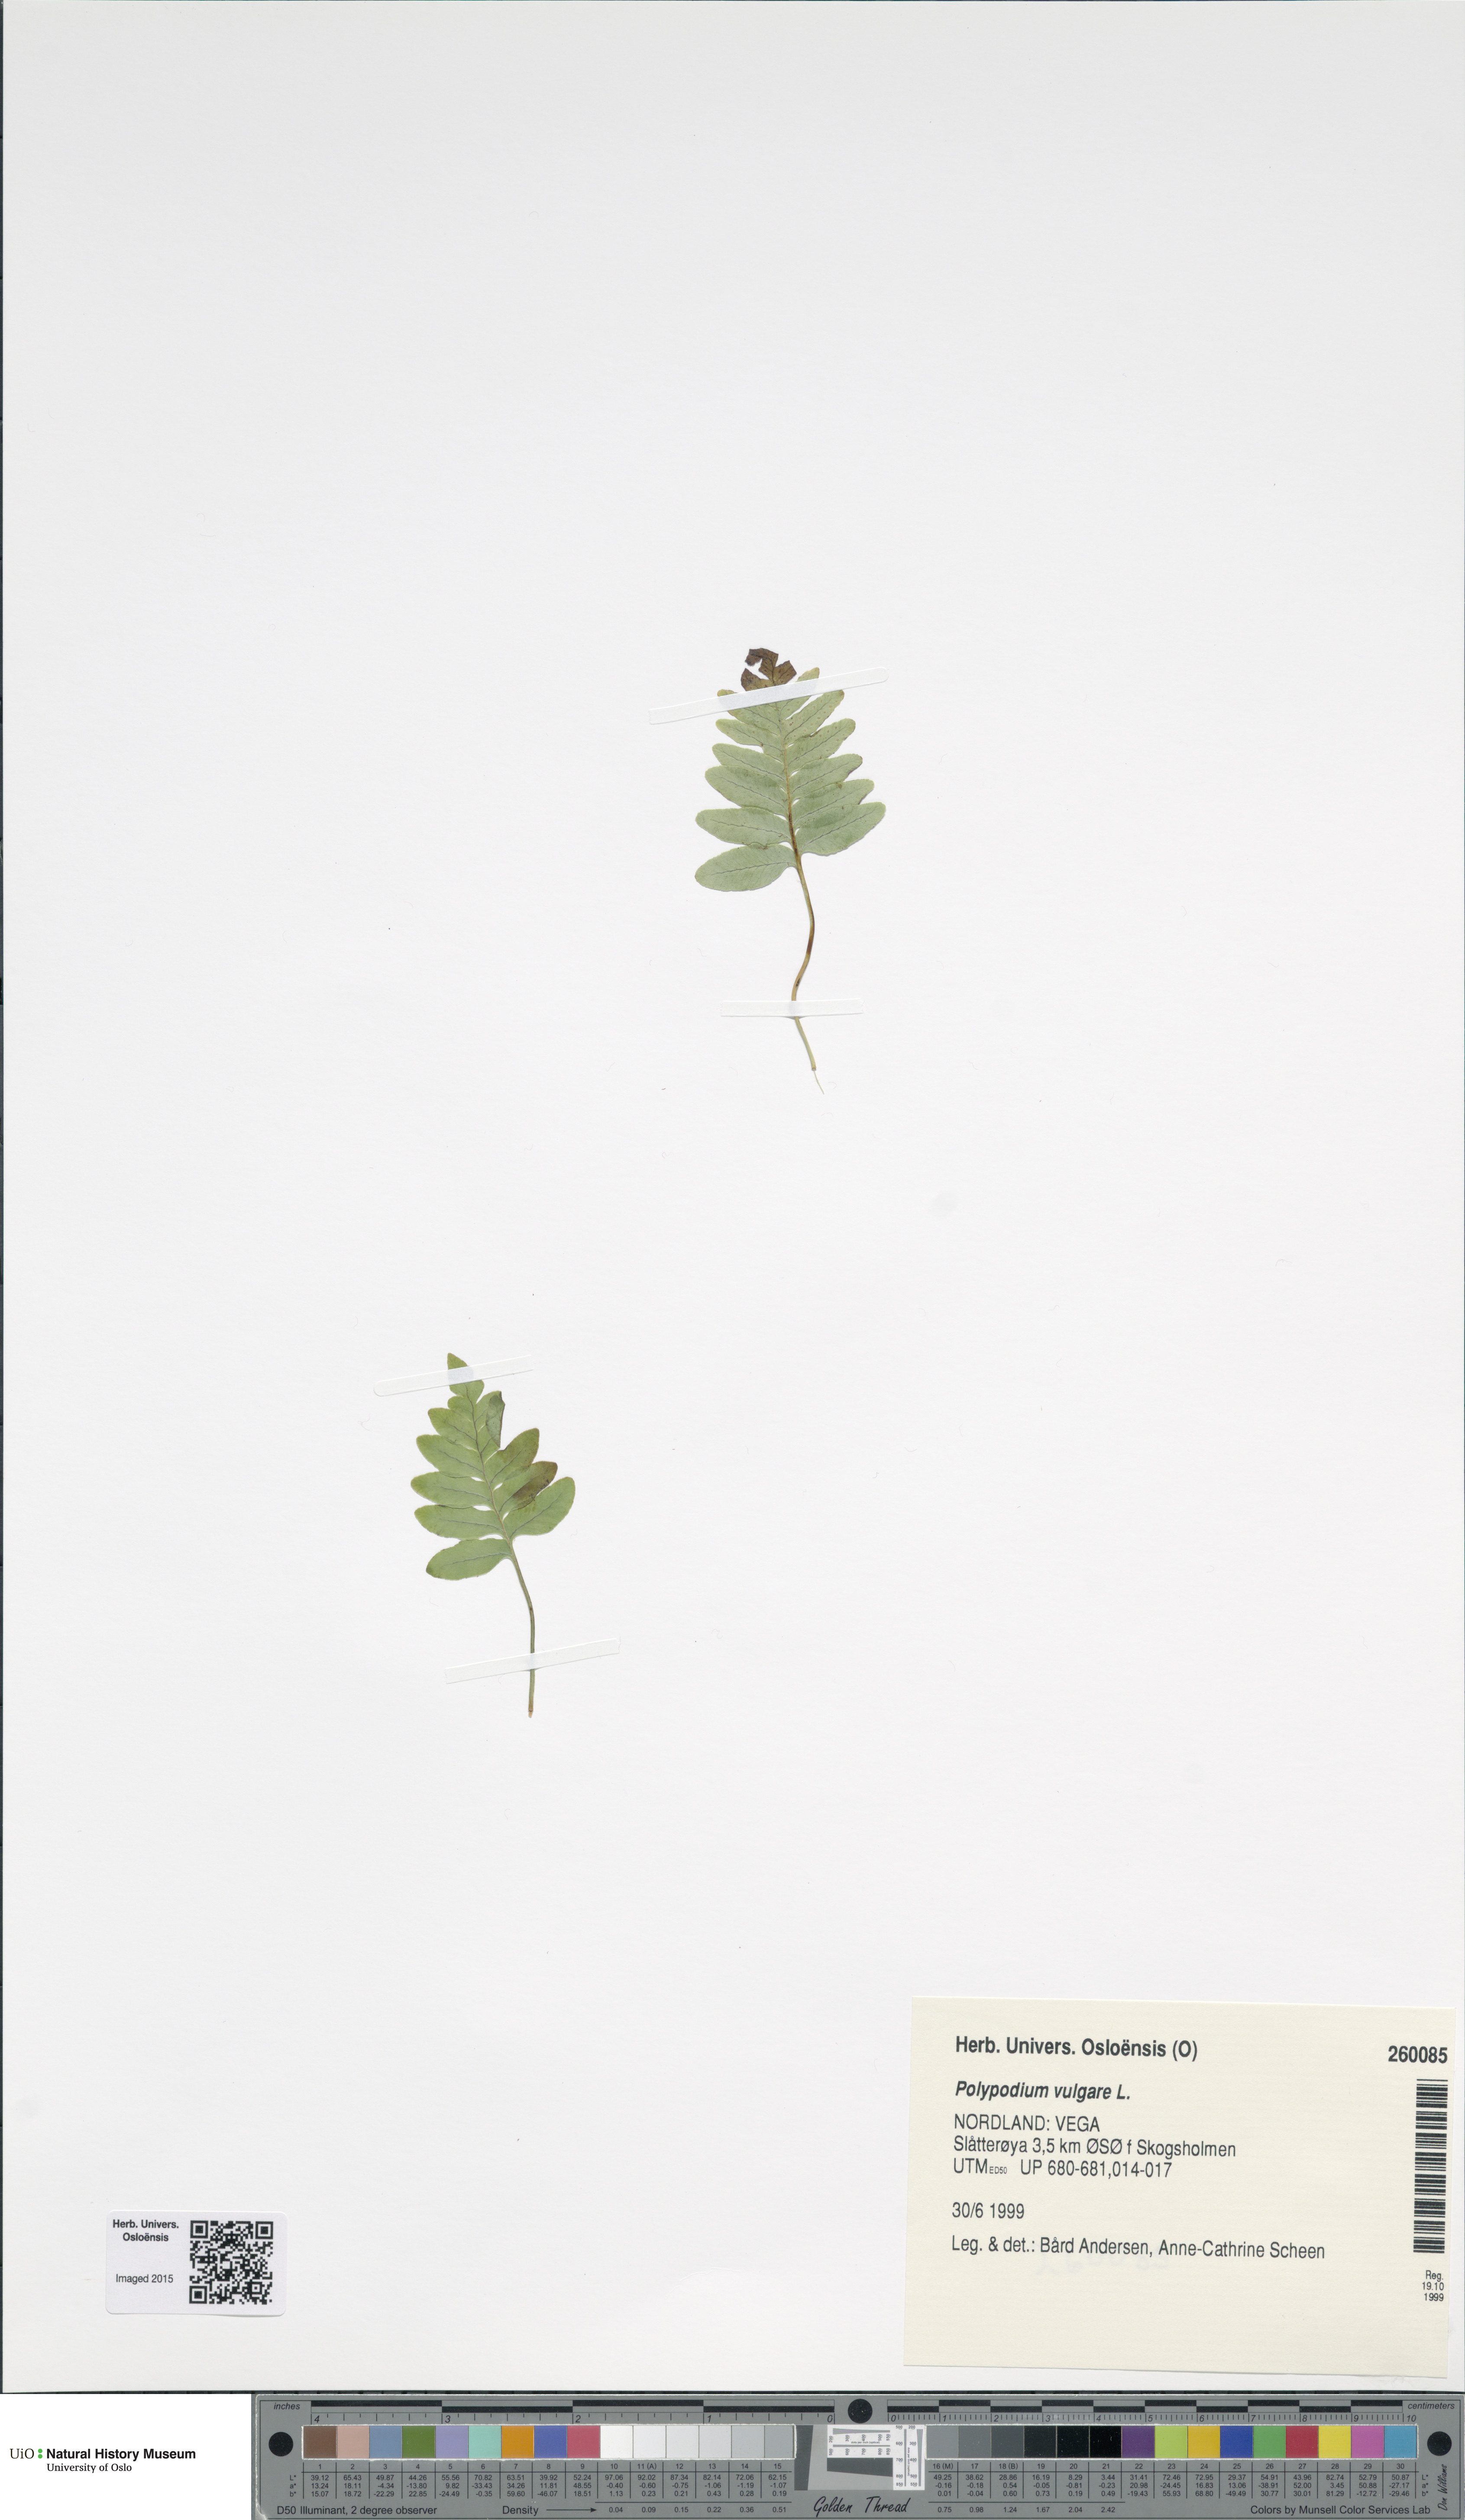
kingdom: Plantae
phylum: Tracheophyta
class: Polypodiopsida
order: Polypodiales
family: Polypodiaceae
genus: Polypodium
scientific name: Polypodium vulgare
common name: Common polypody
